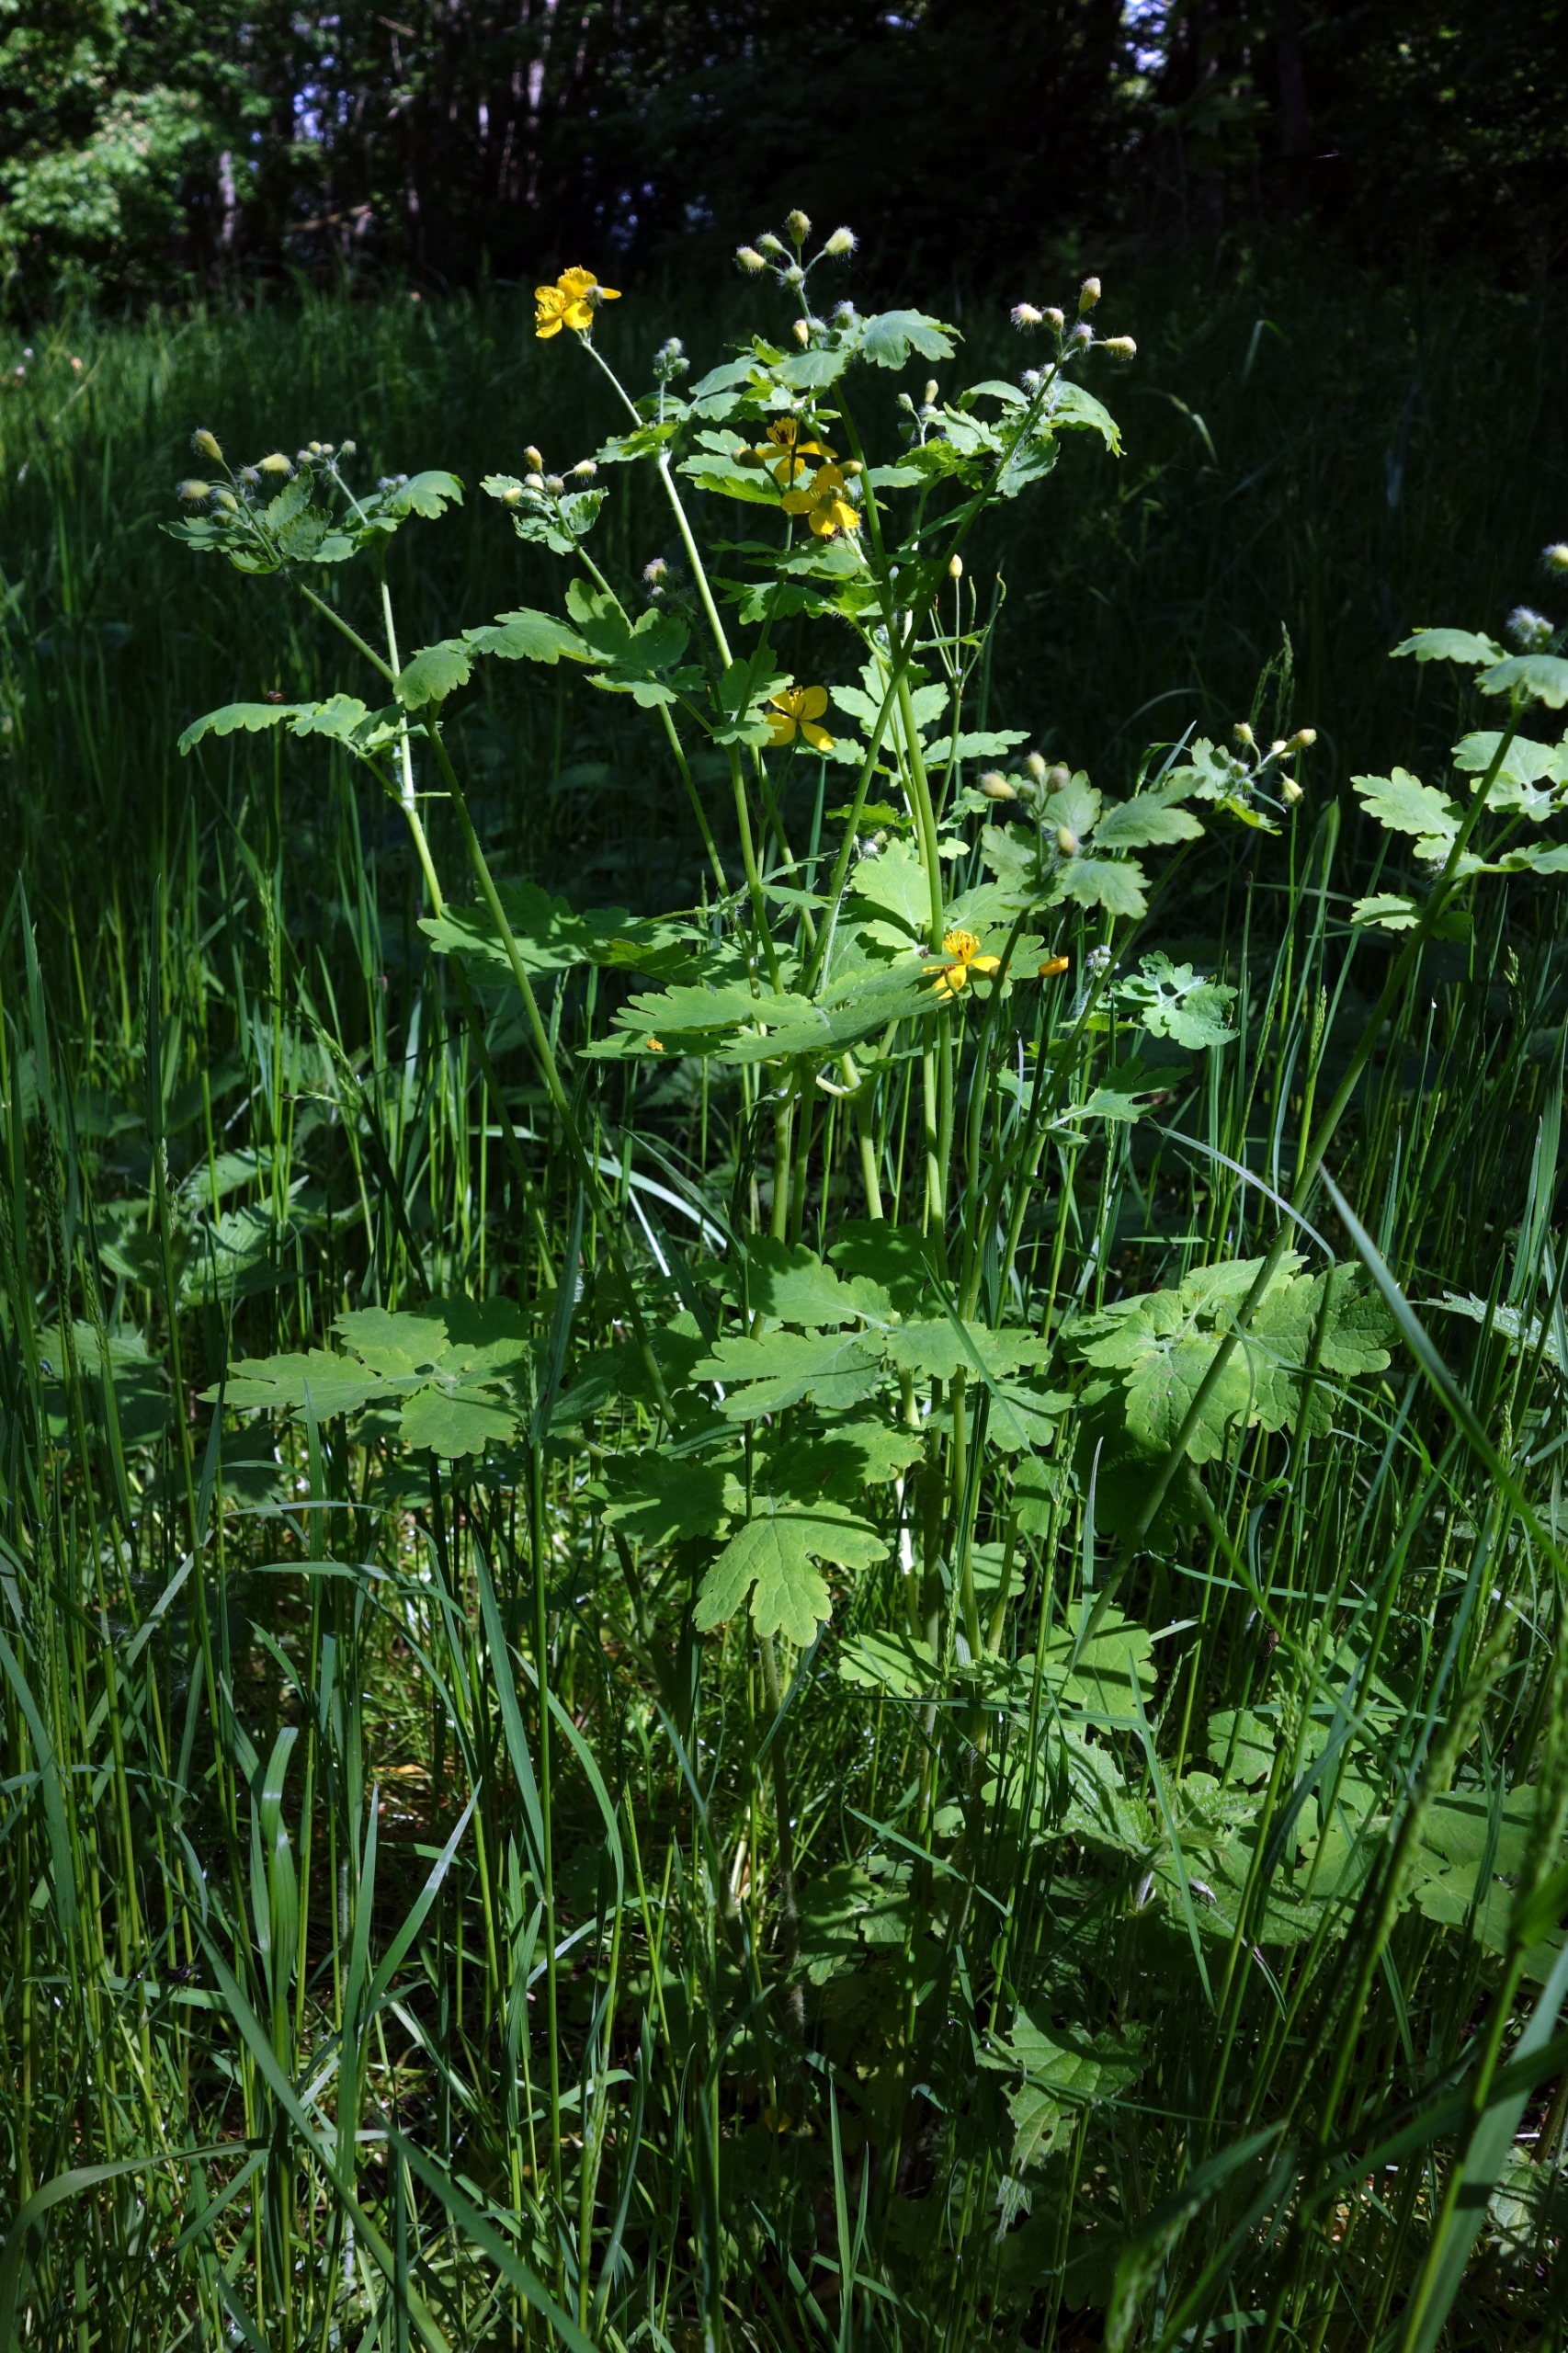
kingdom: Plantae
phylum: Tracheophyta
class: Magnoliopsida
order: Ranunculales
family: Papaveraceae
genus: Chelidonium
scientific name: Chelidonium majus
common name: Svaleurt
